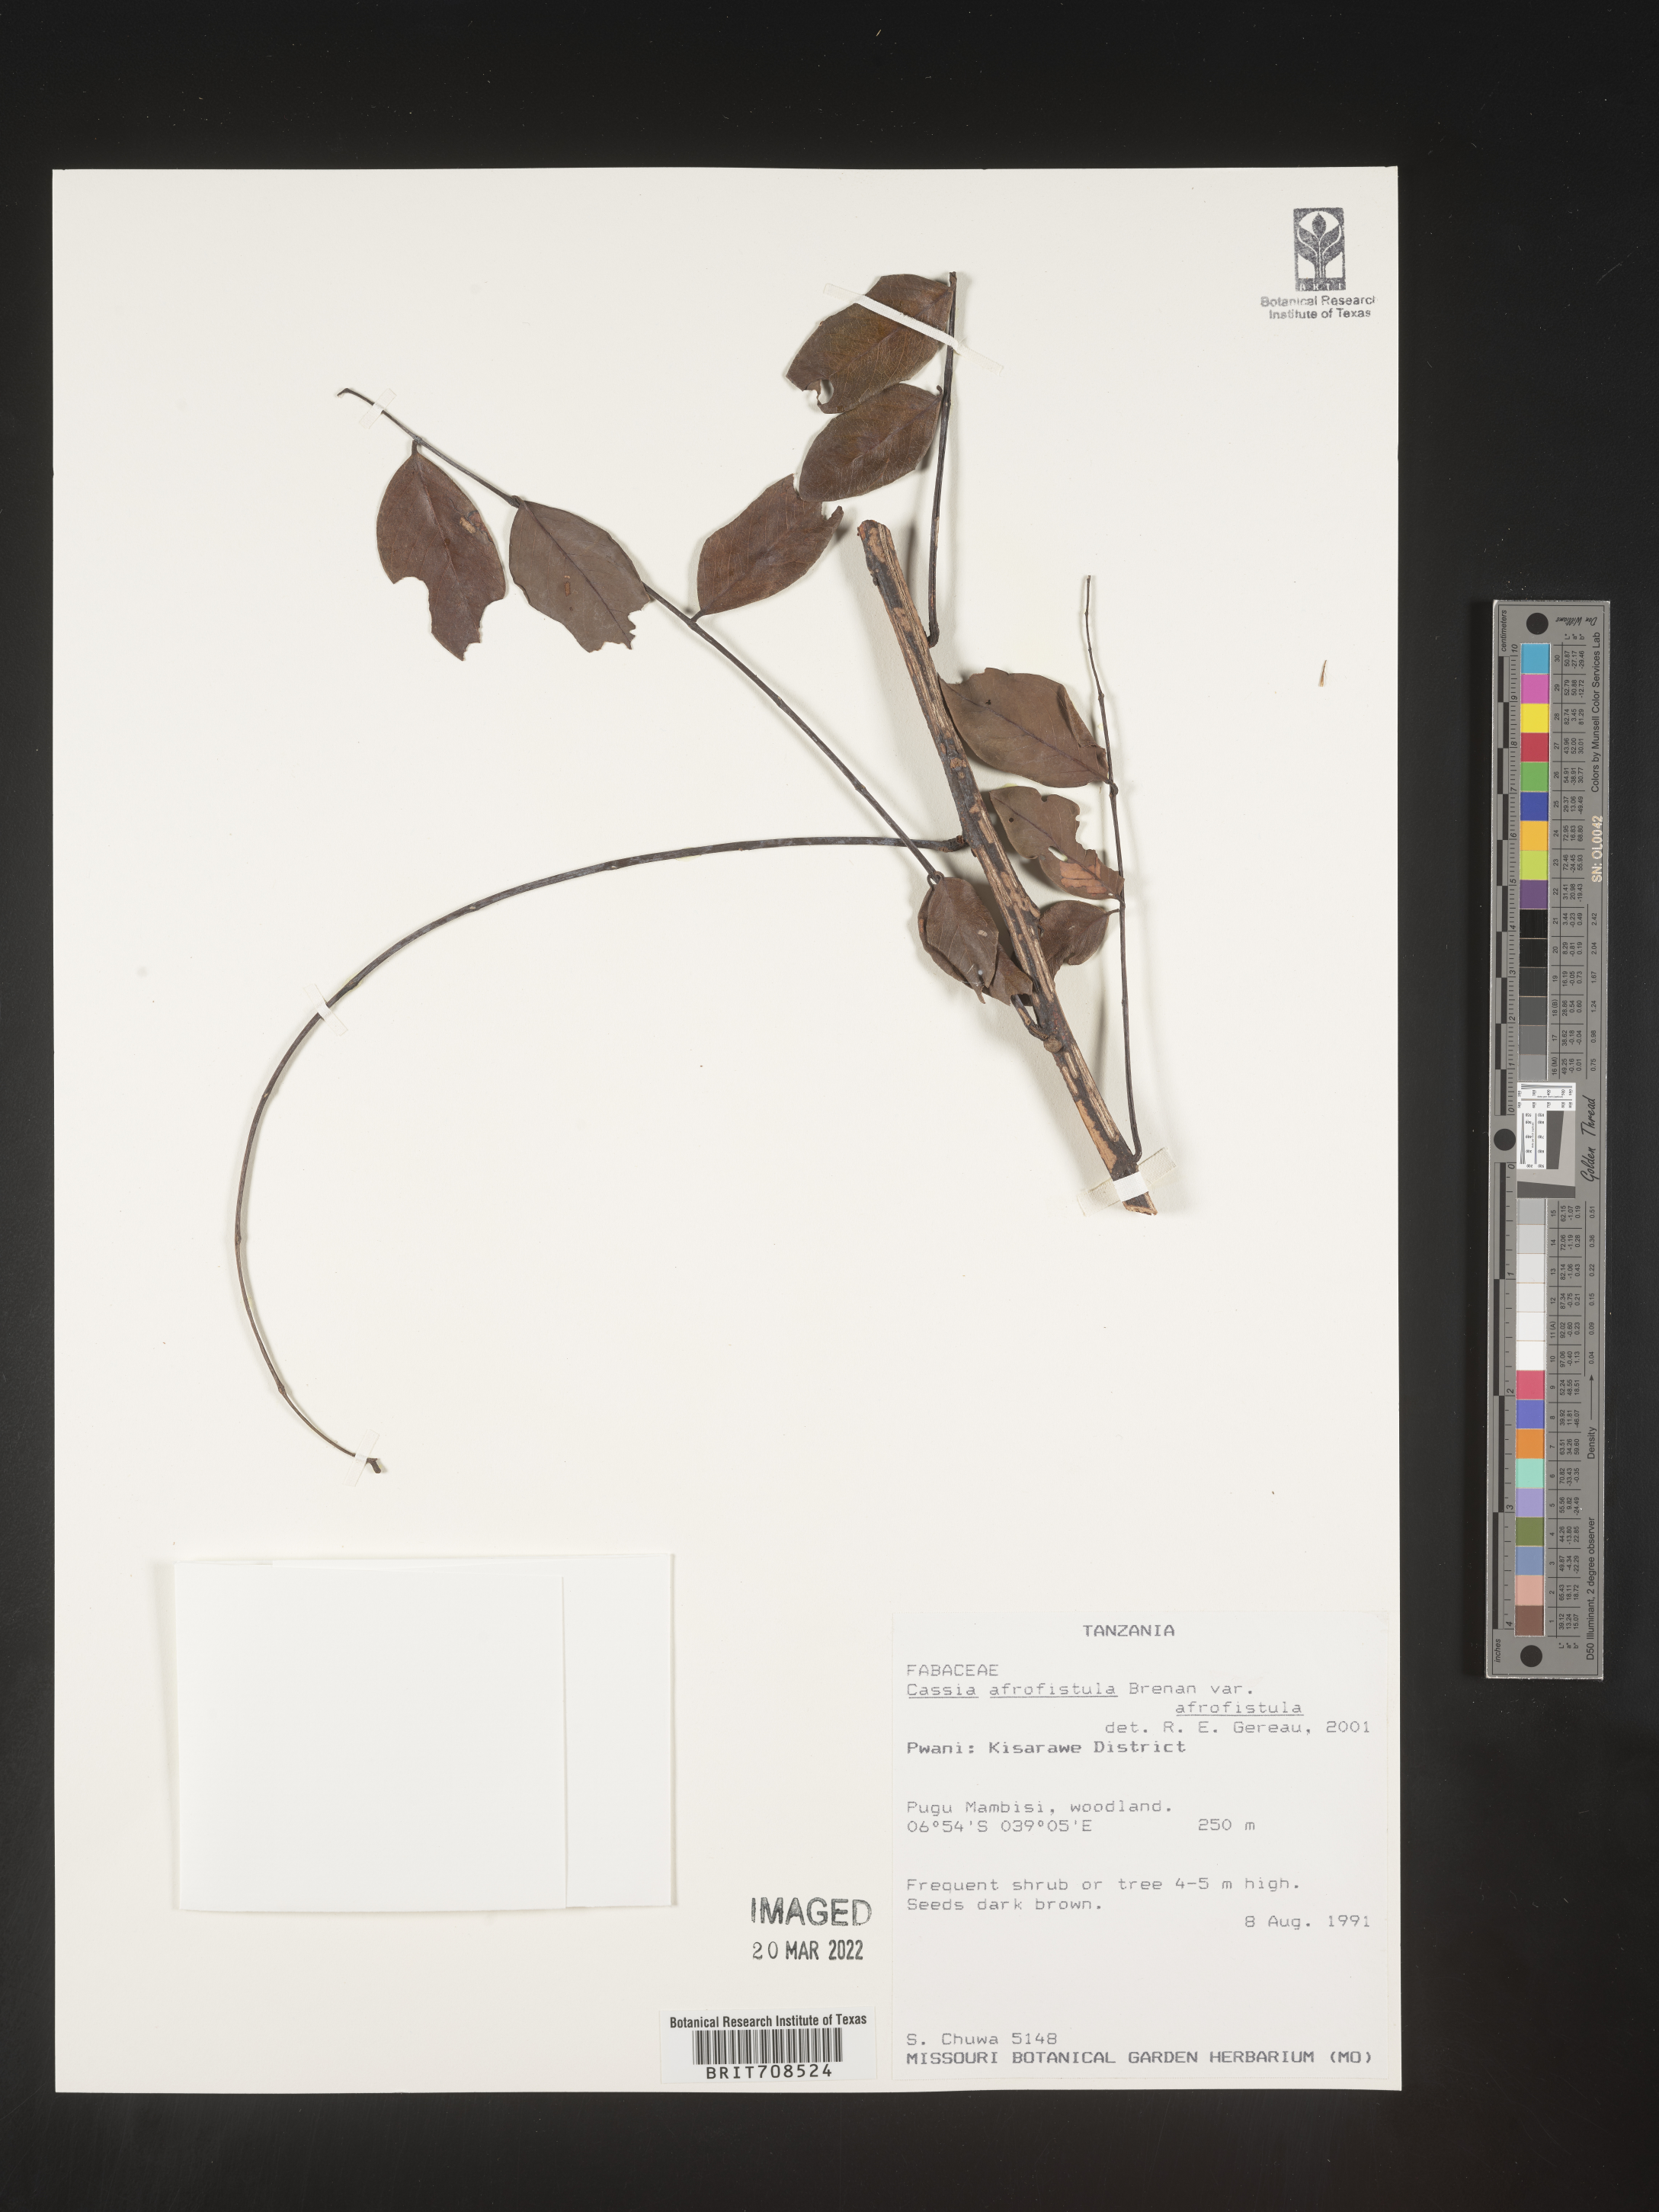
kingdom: Plantae
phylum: Tracheophyta
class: Magnoliopsida
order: Fabales
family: Fabaceae
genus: Cassia
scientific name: Cassia
